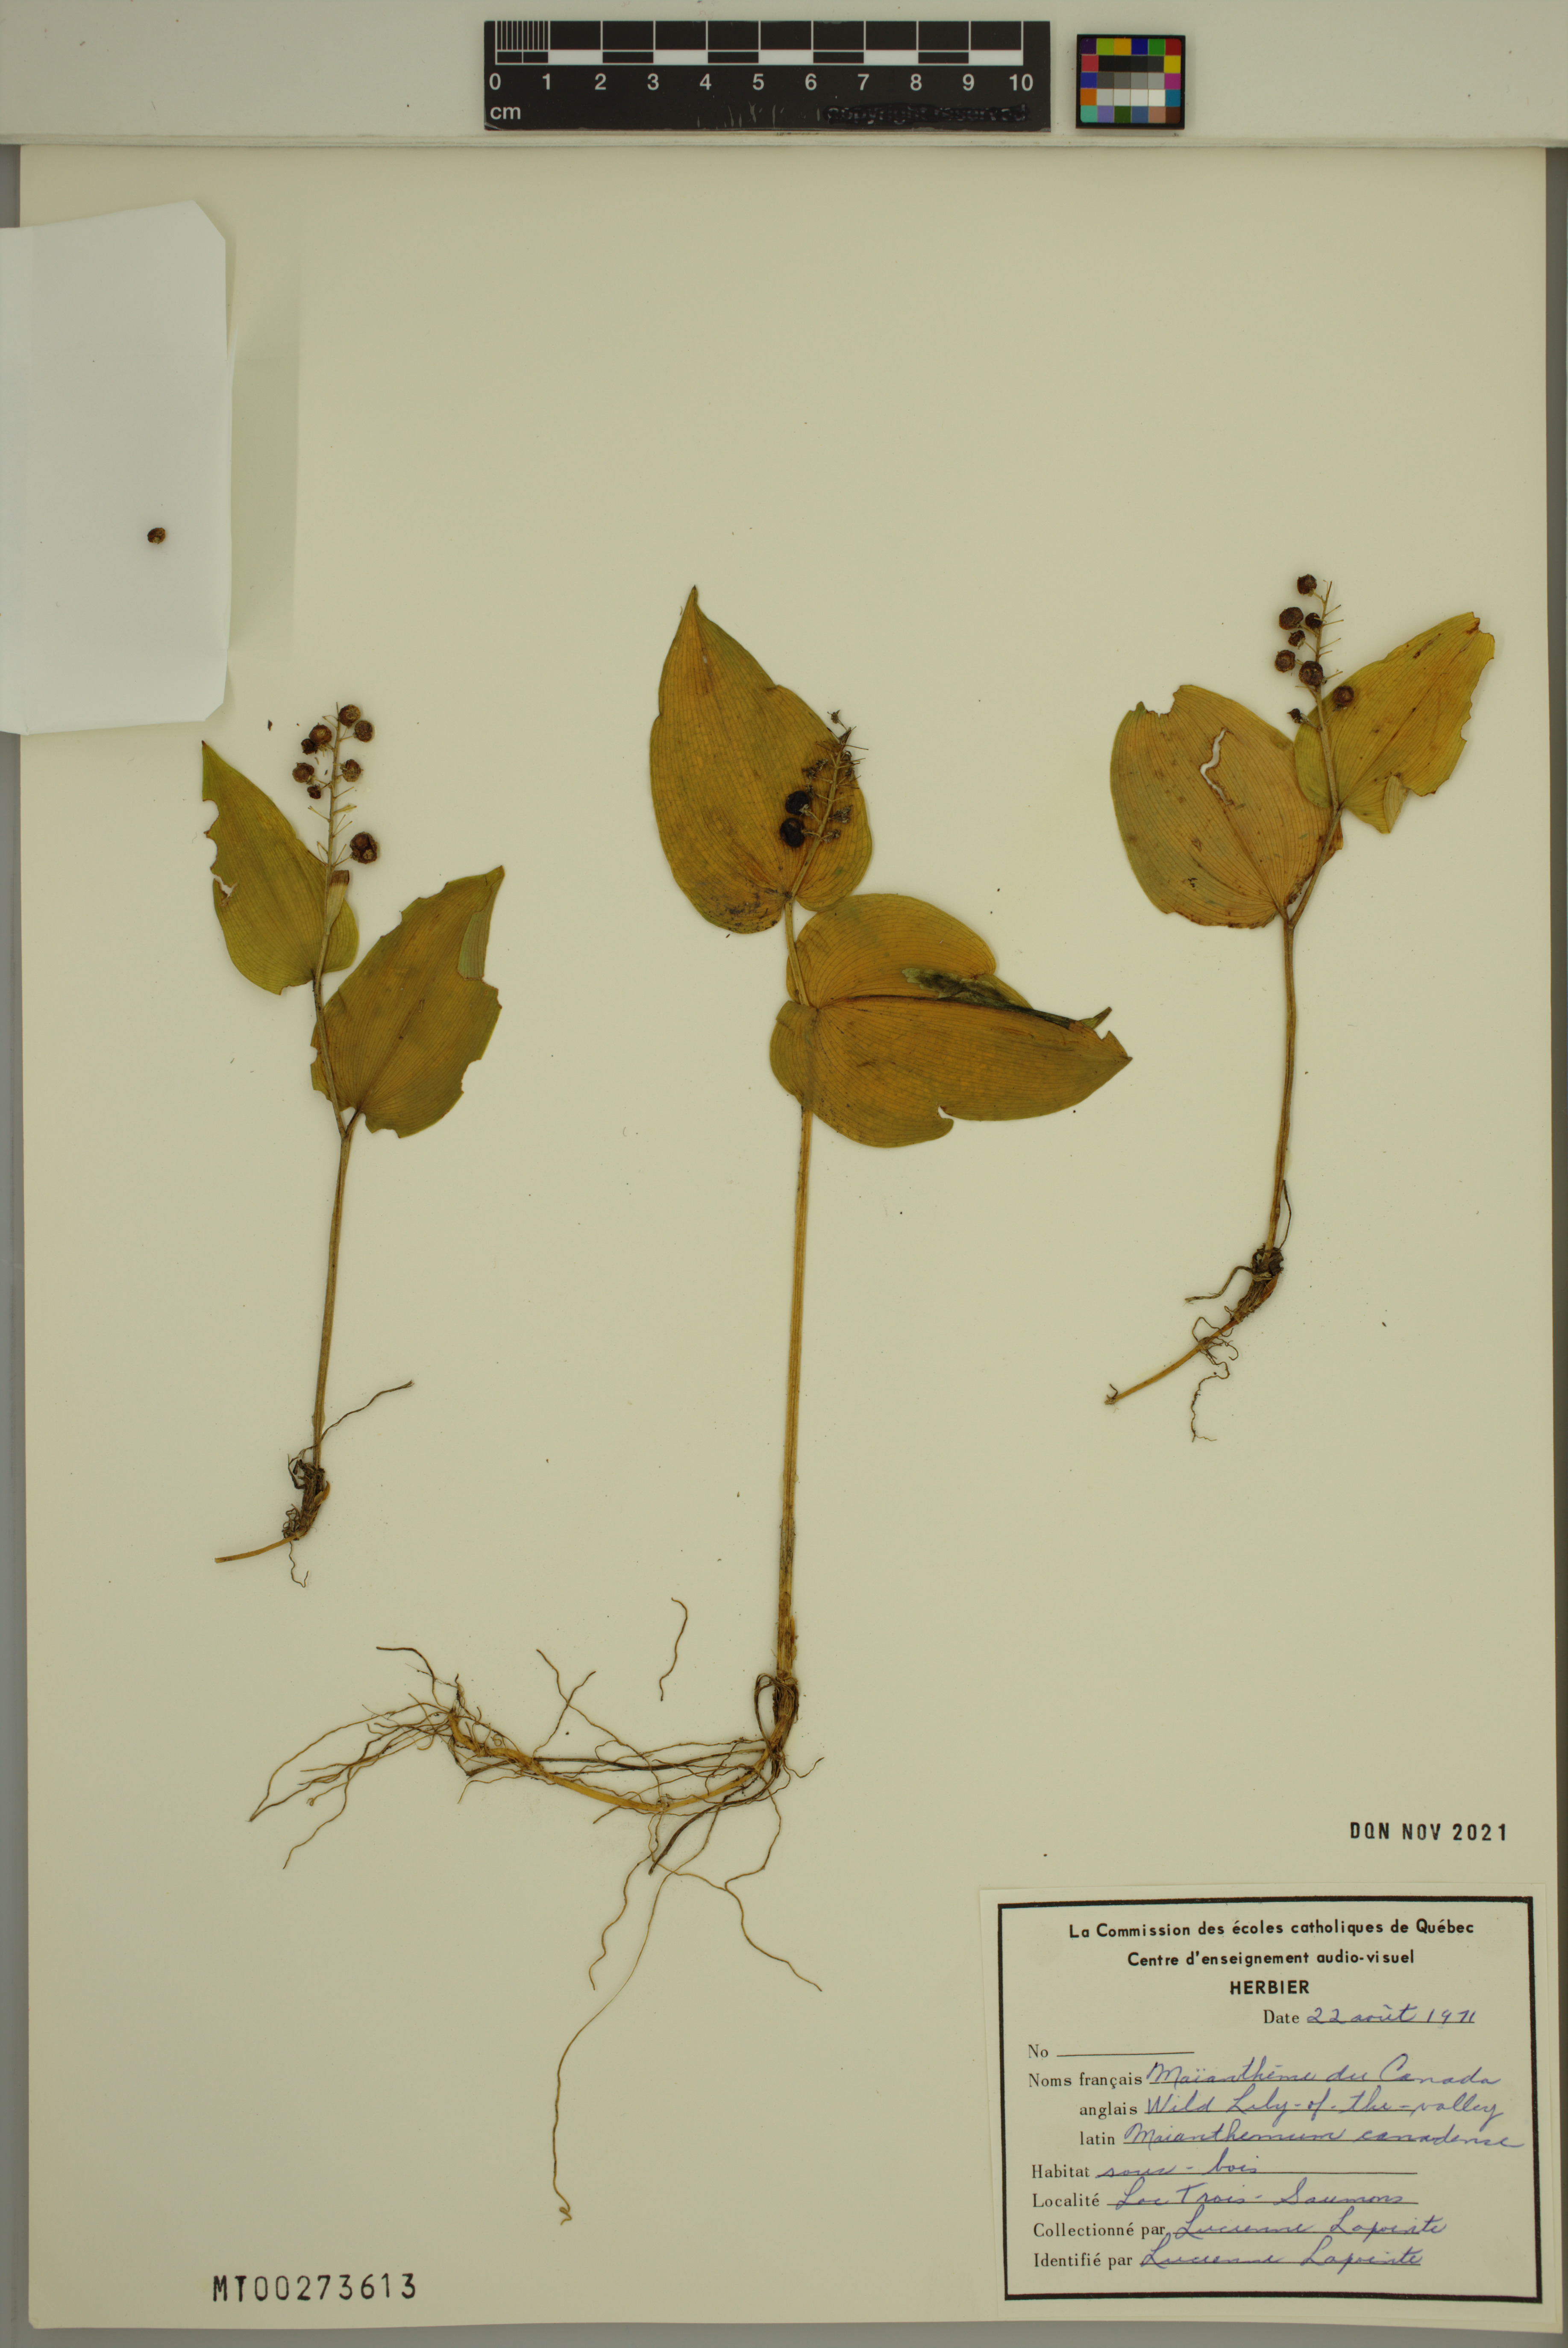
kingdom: Plantae
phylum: Tracheophyta
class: Liliopsida
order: Asparagales
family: Asparagaceae
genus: Maianthemum
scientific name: Maianthemum canadense
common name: False lily-of-the-valley
